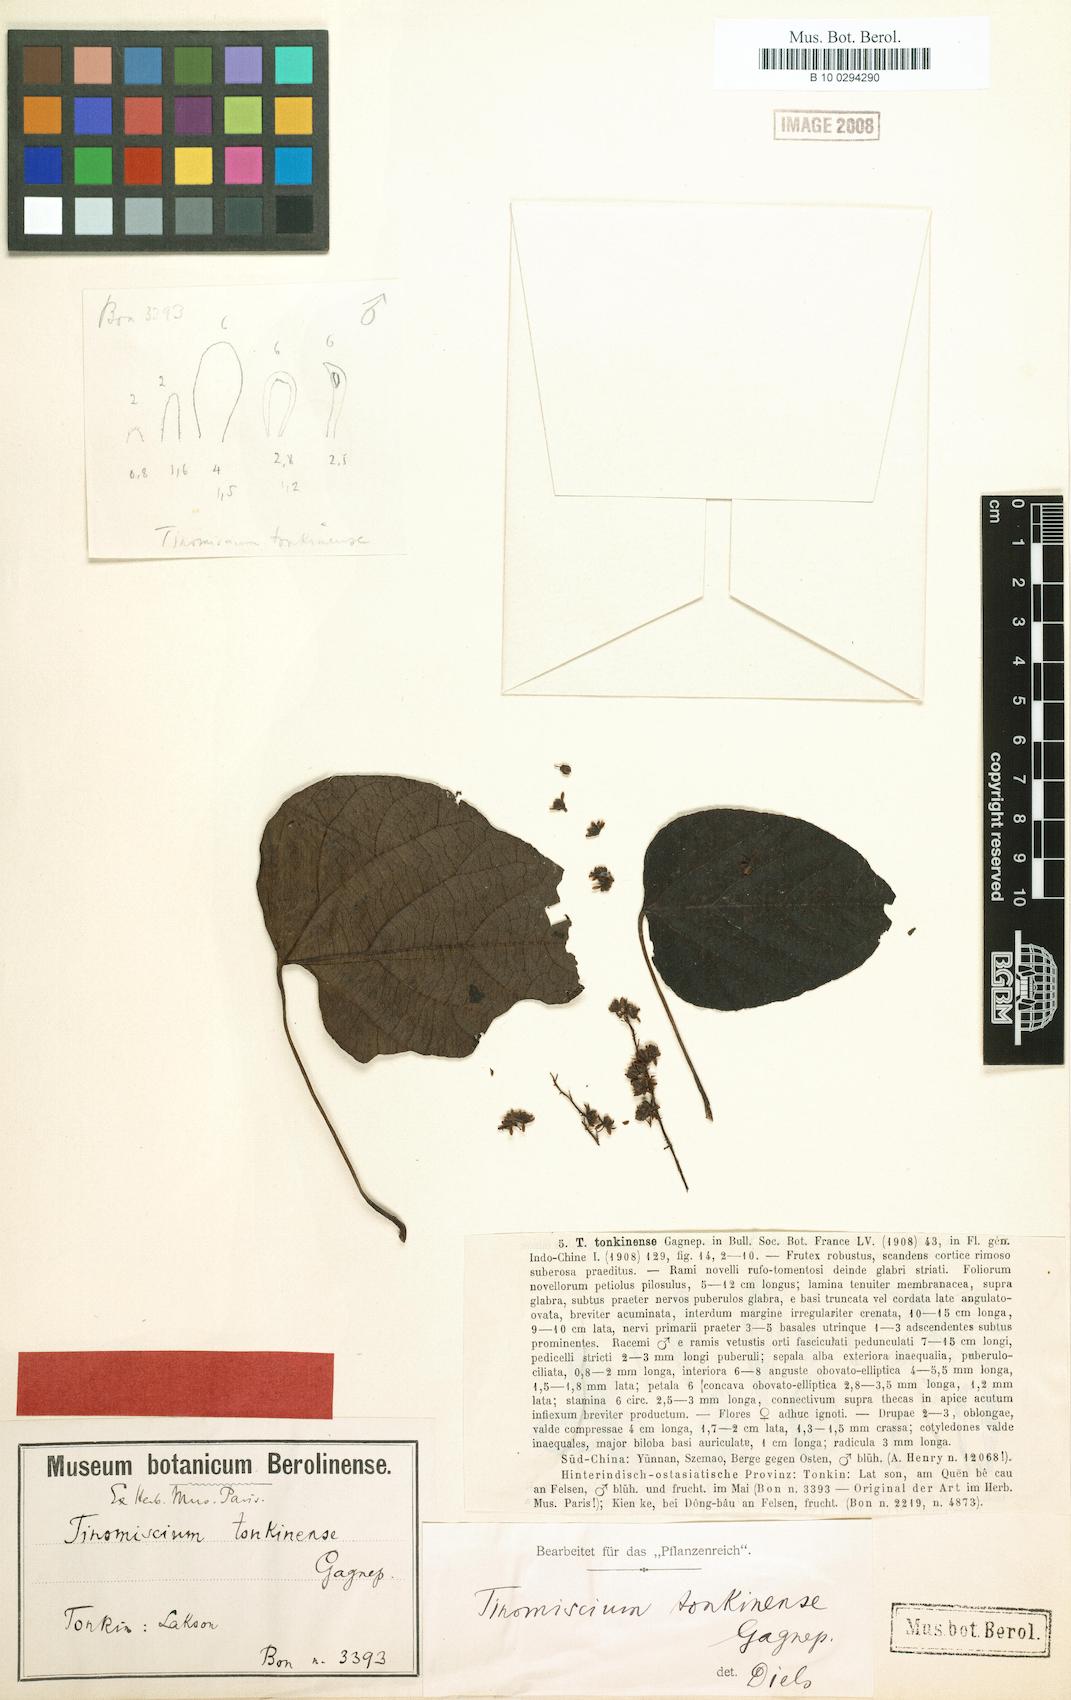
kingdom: Plantae
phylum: Tracheophyta
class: Magnoliopsida
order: Ranunculales
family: Menispermaceae
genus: Tinomiscium
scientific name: Tinomiscium petiolare
